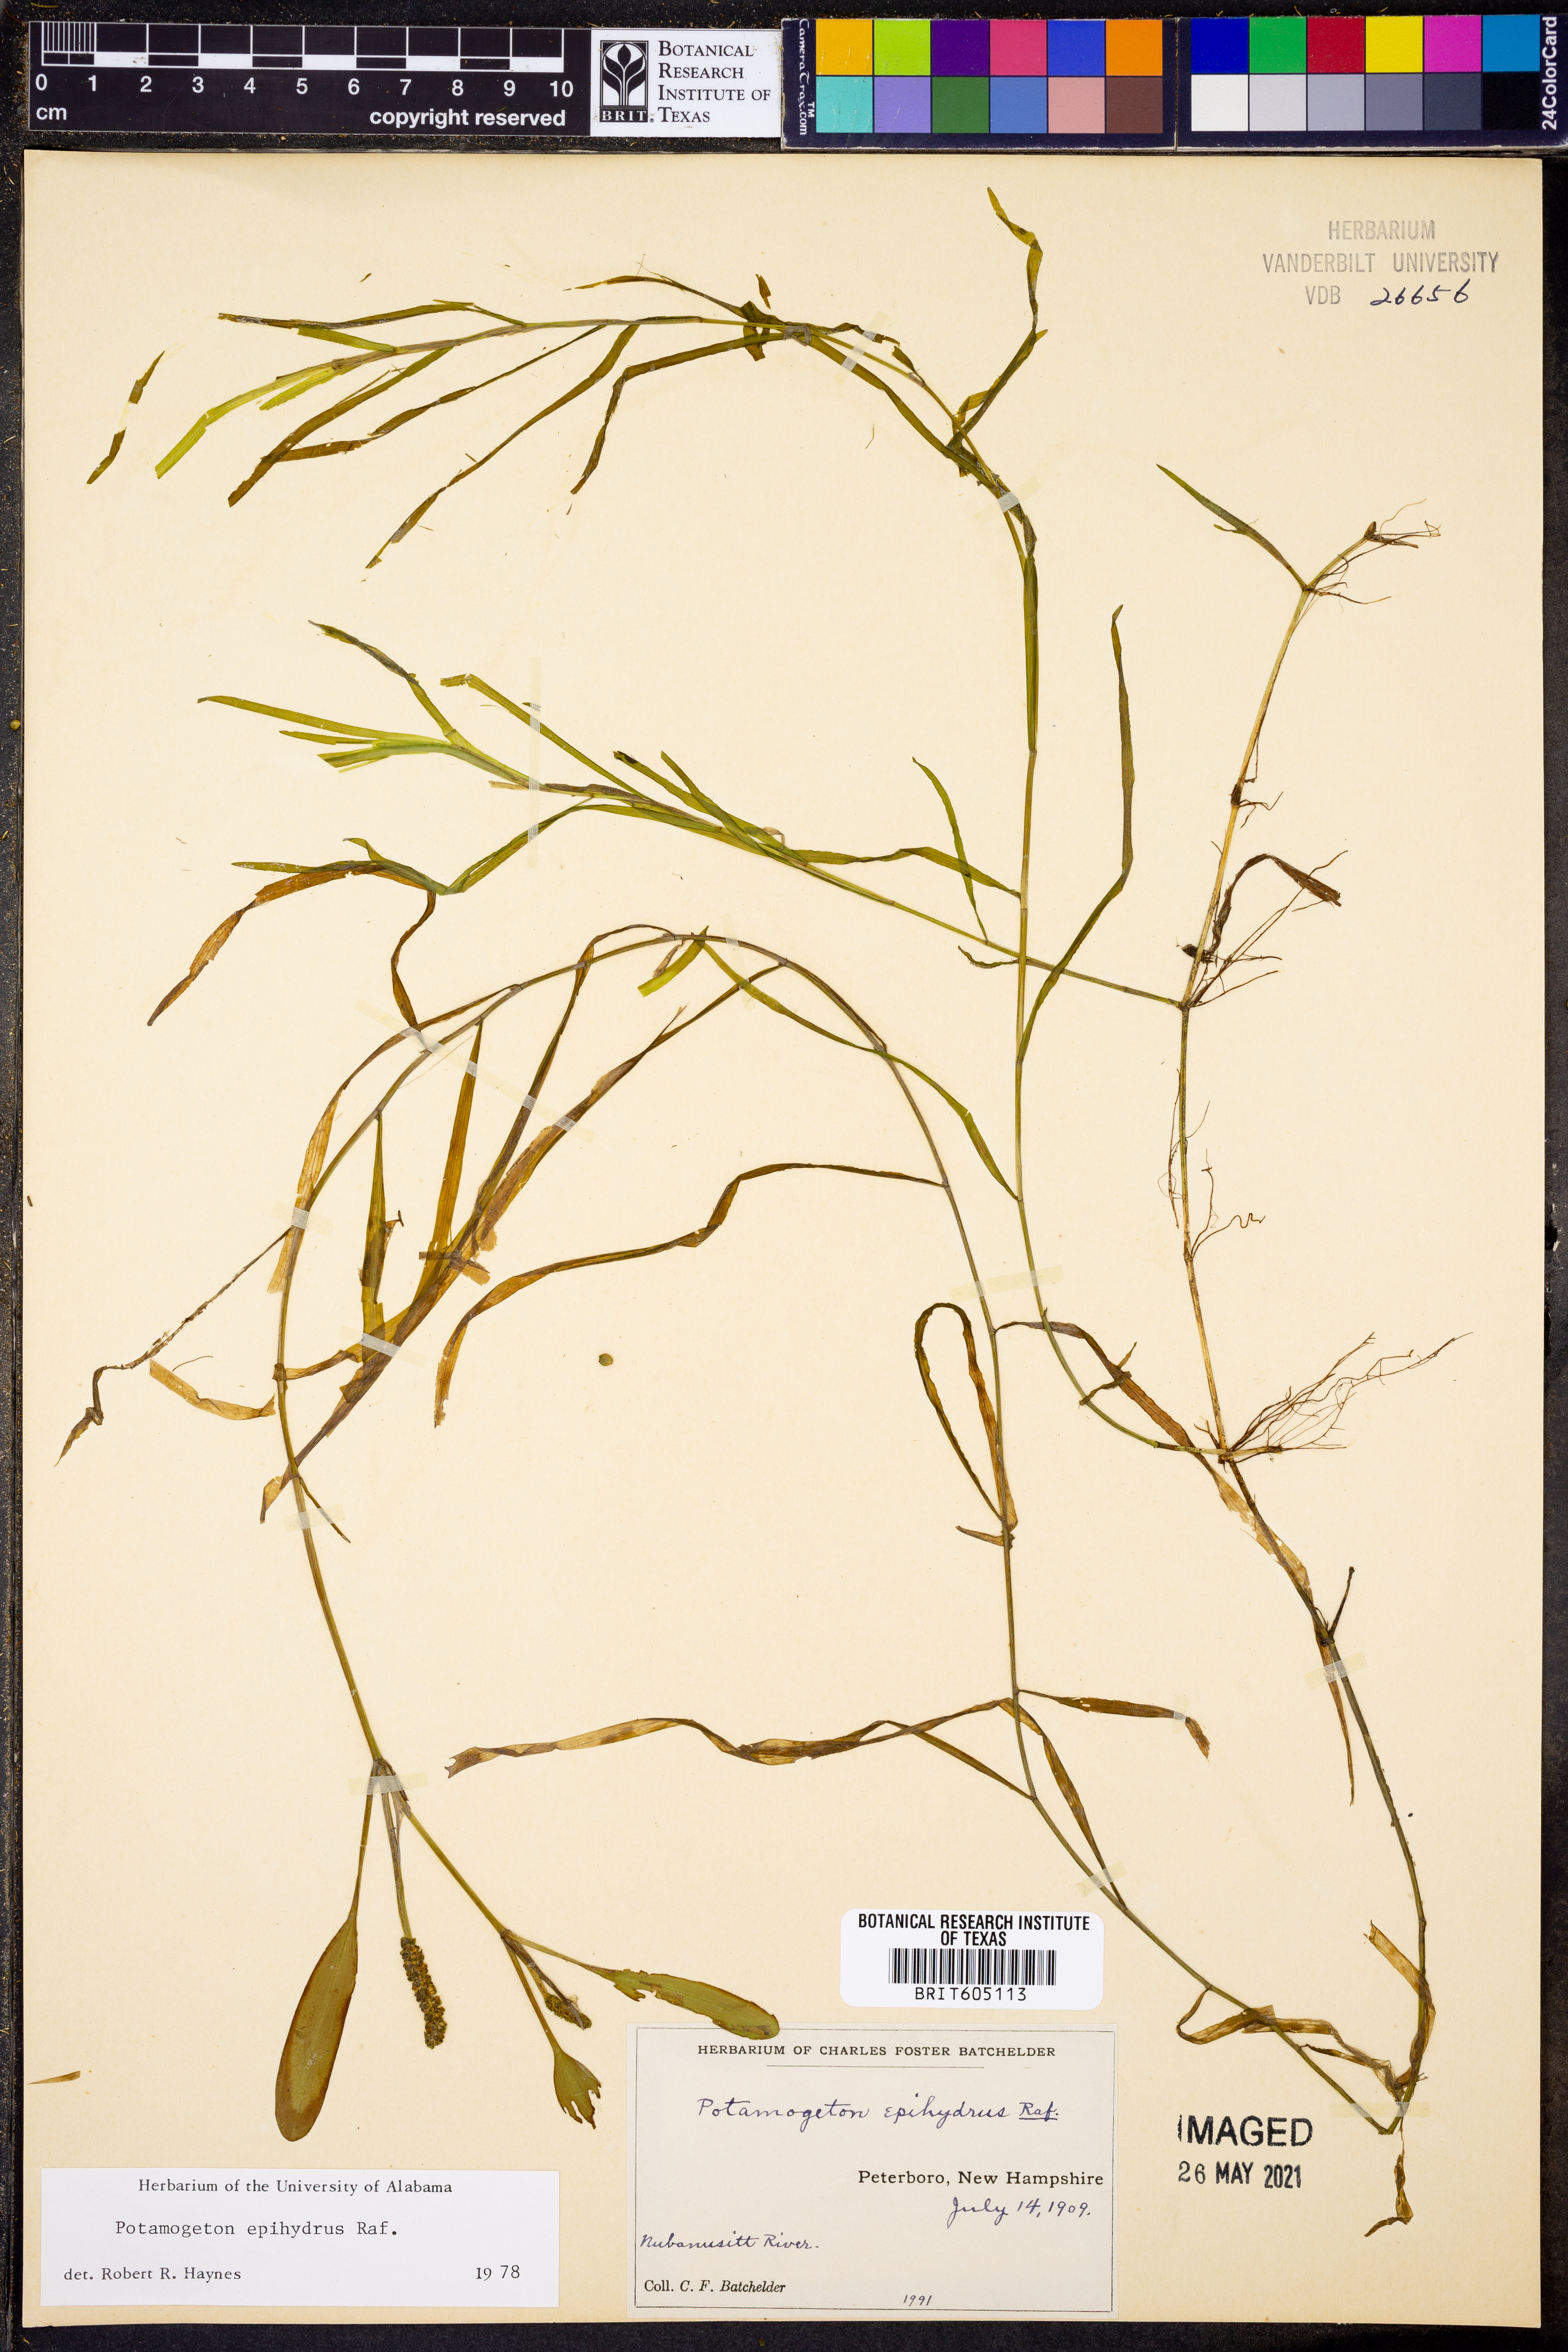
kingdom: Plantae
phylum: Tracheophyta
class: Liliopsida
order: Alismatales
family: Potamogetonaceae
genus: Potamogeton
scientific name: Potamogeton epihydrus
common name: American pondweed
